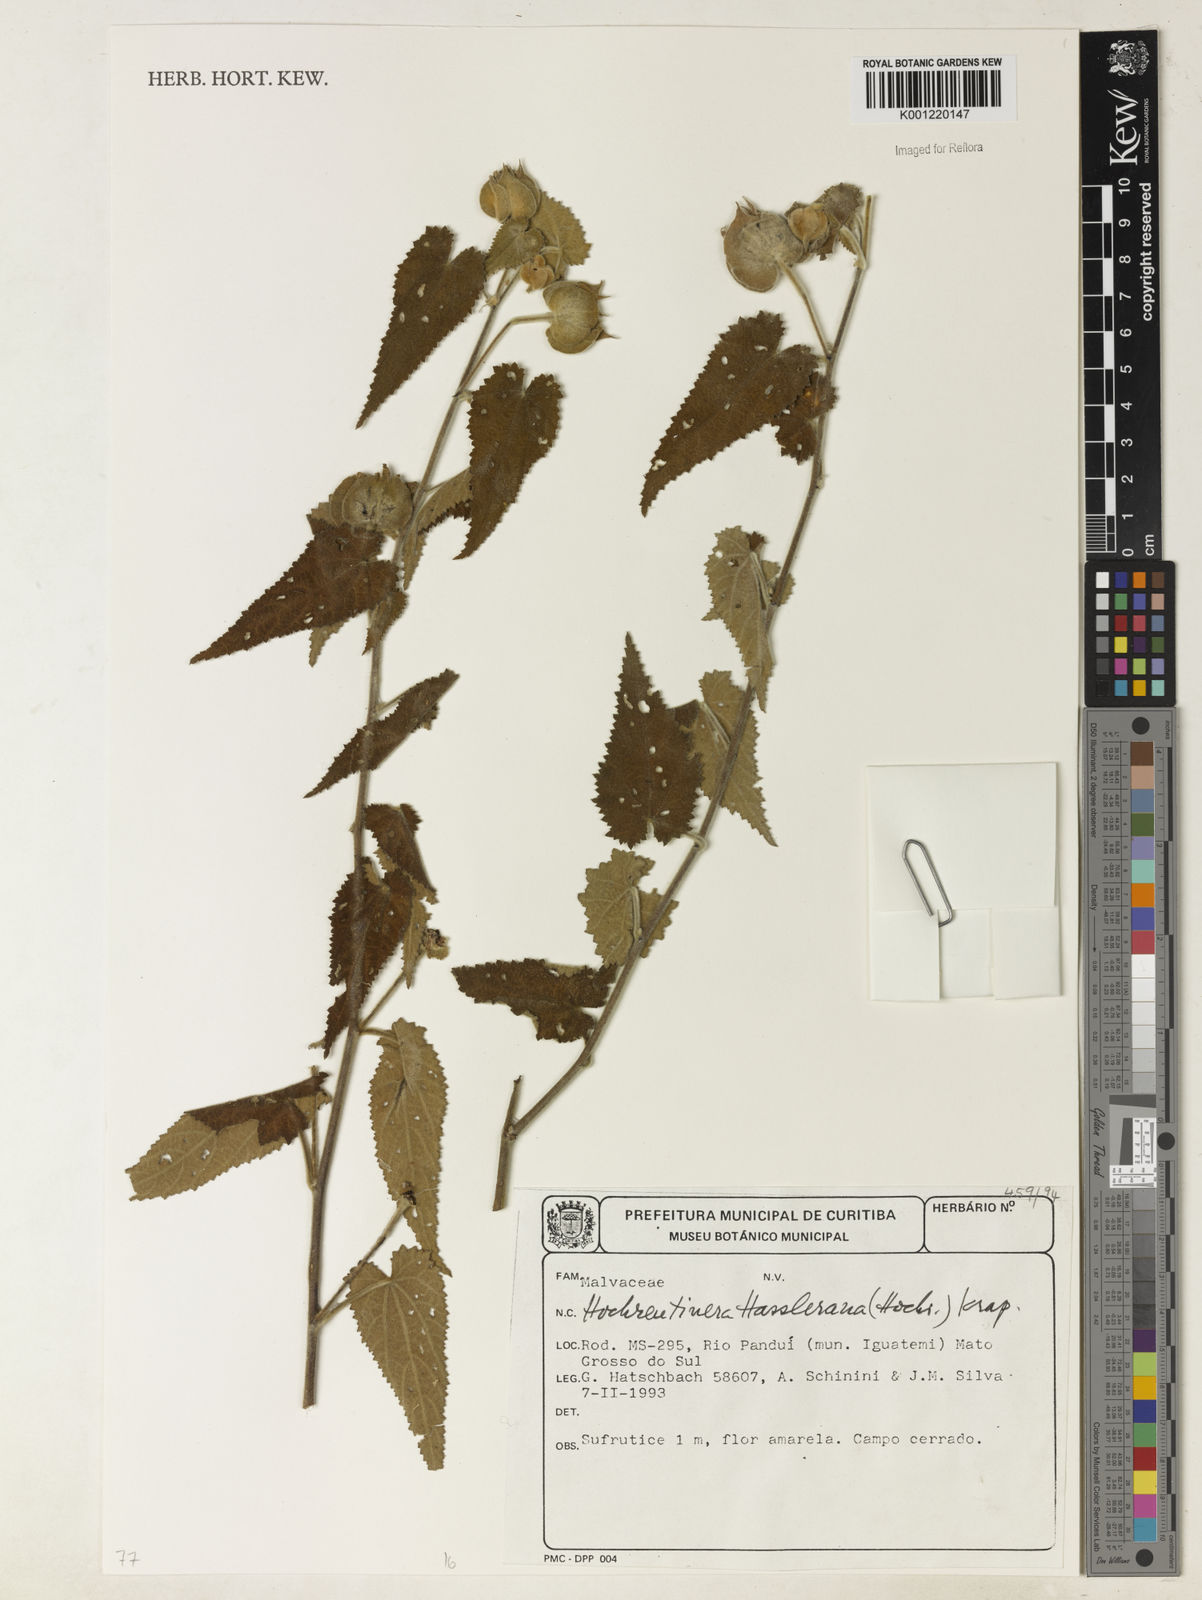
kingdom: Plantae
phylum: Tracheophyta
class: Magnoliopsida
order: Malvales
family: Malvaceae
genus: Hochreutinera
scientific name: Hochreutinera hassleriana
